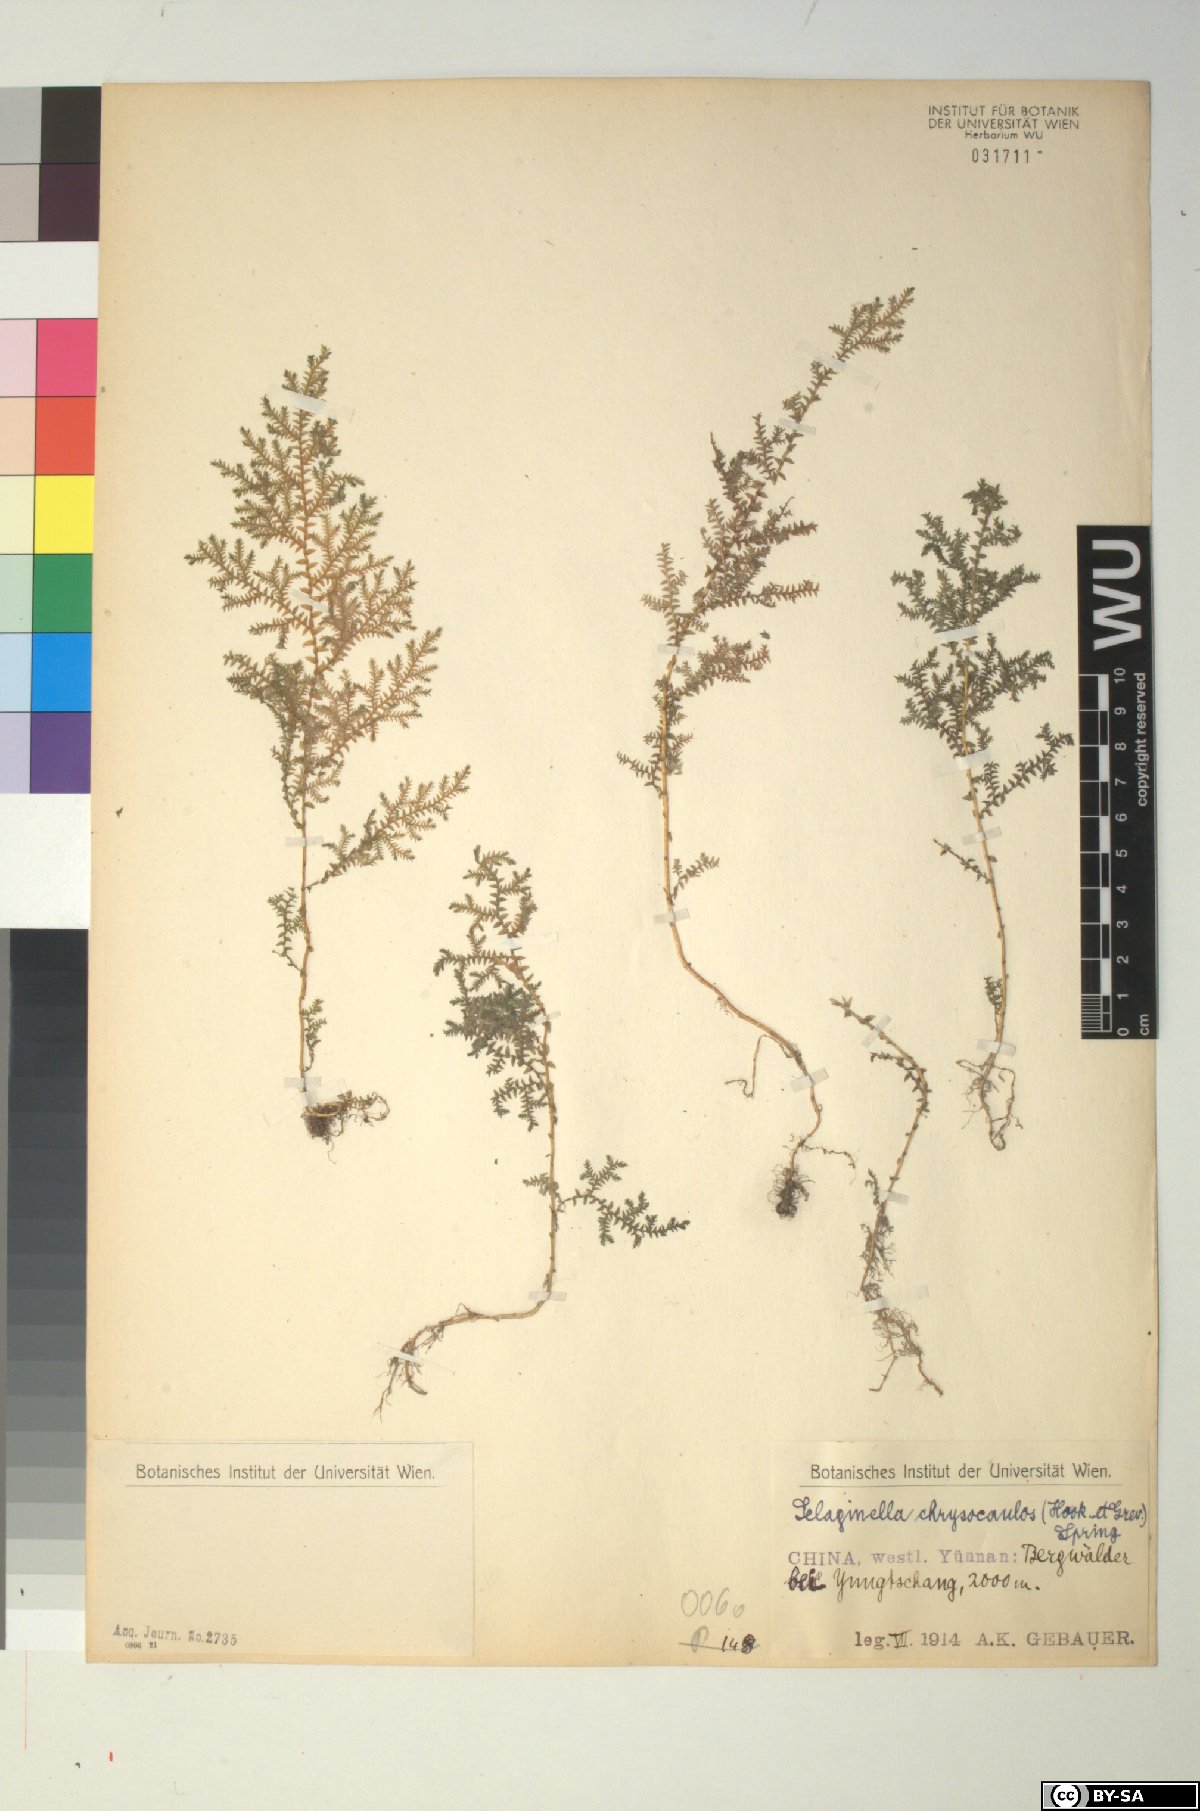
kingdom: Plantae
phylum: Tracheophyta
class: Lycopodiopsida
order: Selaginellales
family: Selaginellaceae
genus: Selaginella
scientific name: Selaginella chrysocaulos
